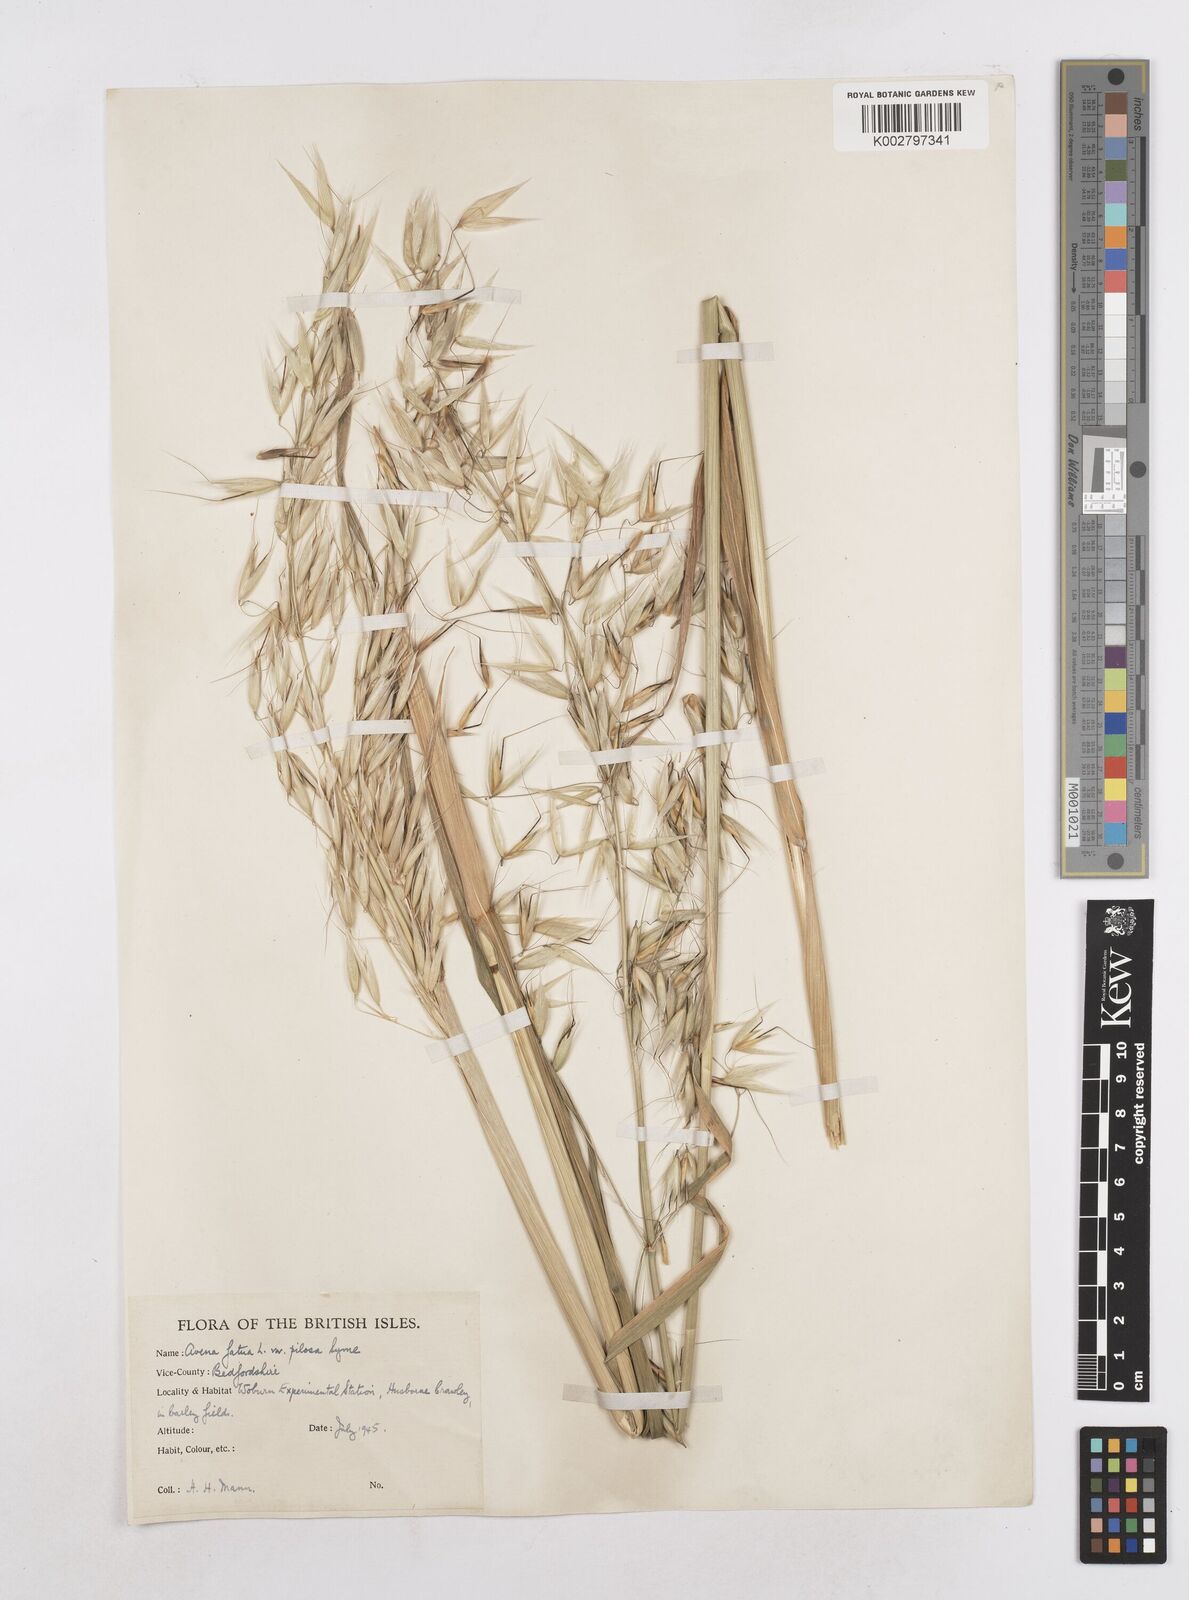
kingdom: Plantae
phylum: Tracheophyta
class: Liliopsida
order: Poales
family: Poaceae
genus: Avena
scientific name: Avena fatua
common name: Wild oat
